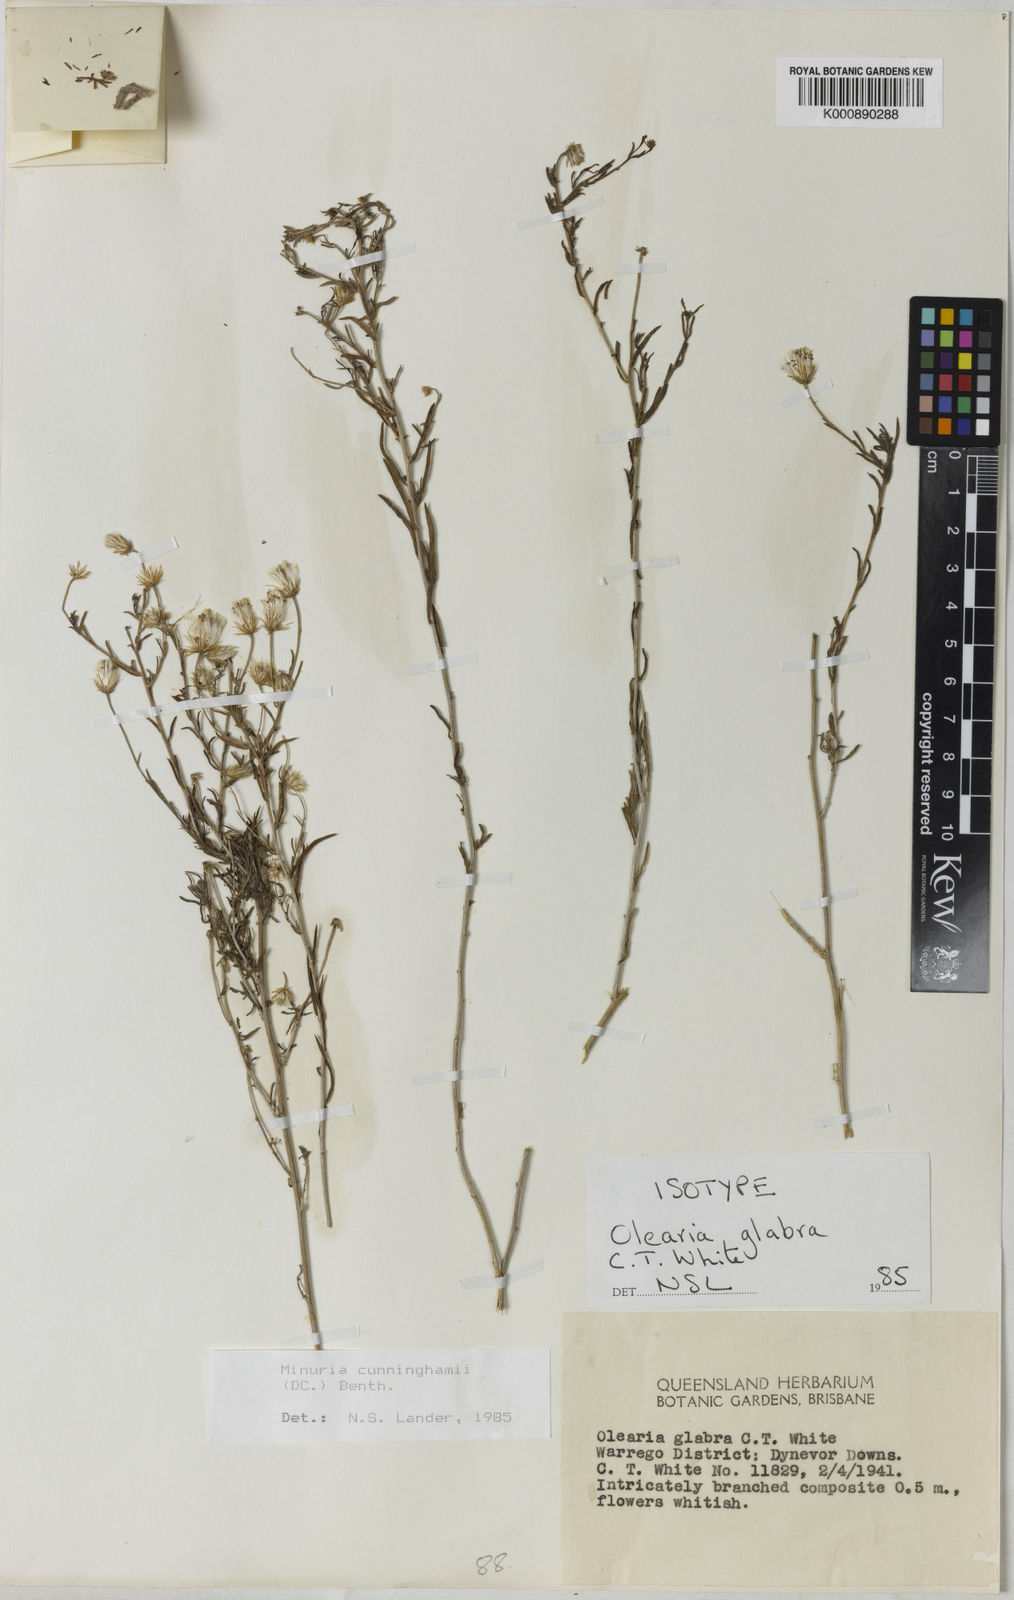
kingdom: Plantae
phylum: Tracheophyta
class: Magnoliopsida
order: Asterales
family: Asteraceae
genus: Minuria
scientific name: Minuria cunninghamii
